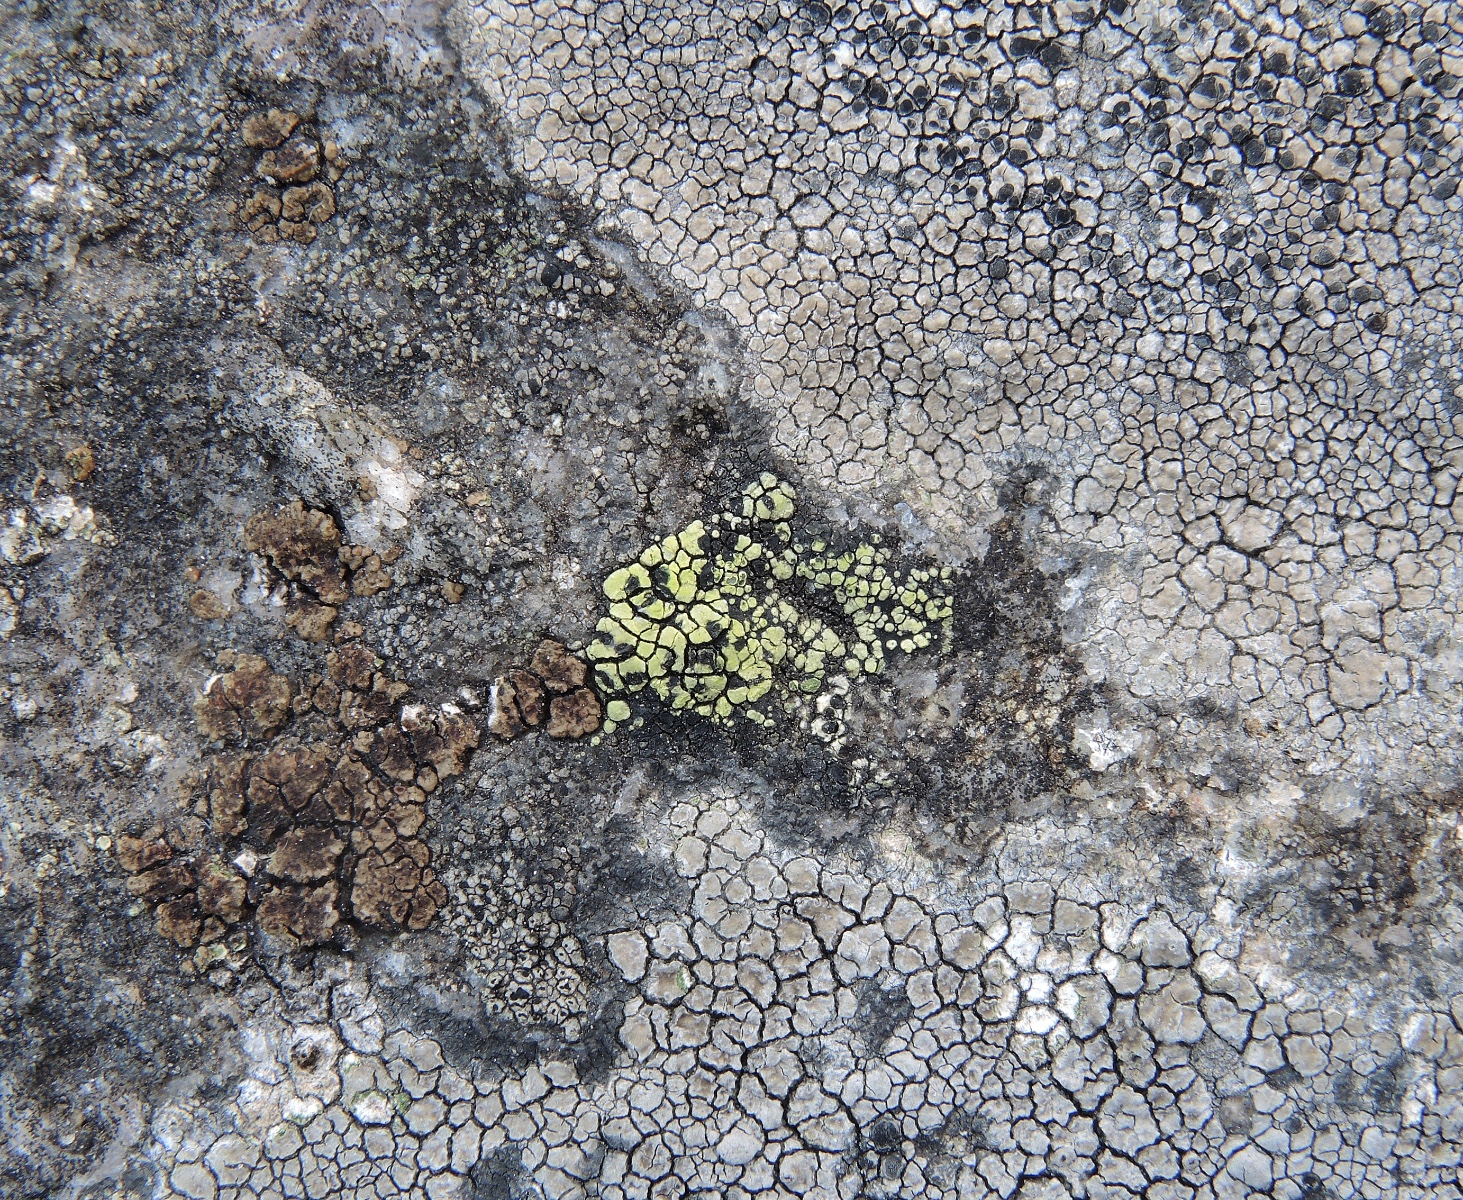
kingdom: Fungi
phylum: Ascomycota
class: Lecanoromycetes
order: Rhizocarpales
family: Rhizocarpaceae
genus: Rhizocarpon
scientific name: Rhizocarpon geographicum
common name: gulgrøn landkortlav
